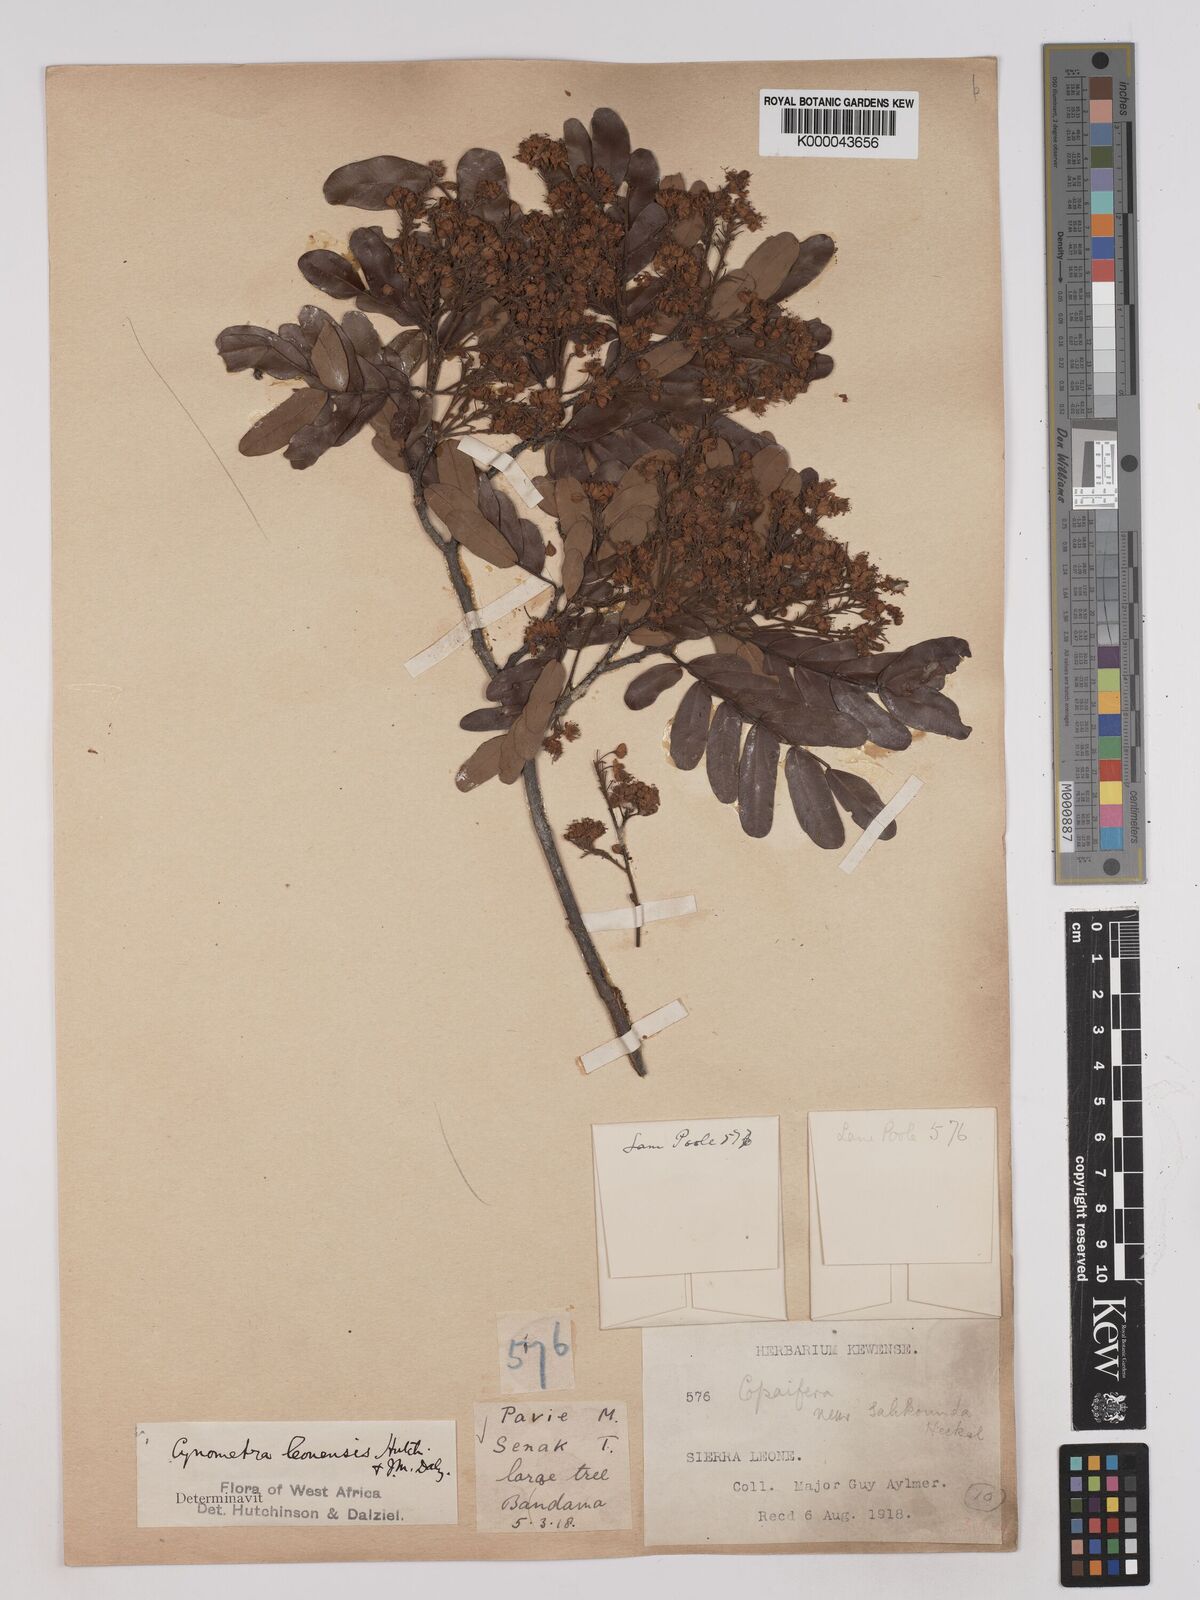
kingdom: Plantae
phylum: Tracheophyta
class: Magnoliopsida
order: Fabales
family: Fabaceae
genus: Cynometra
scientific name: Cynometra leonensis
